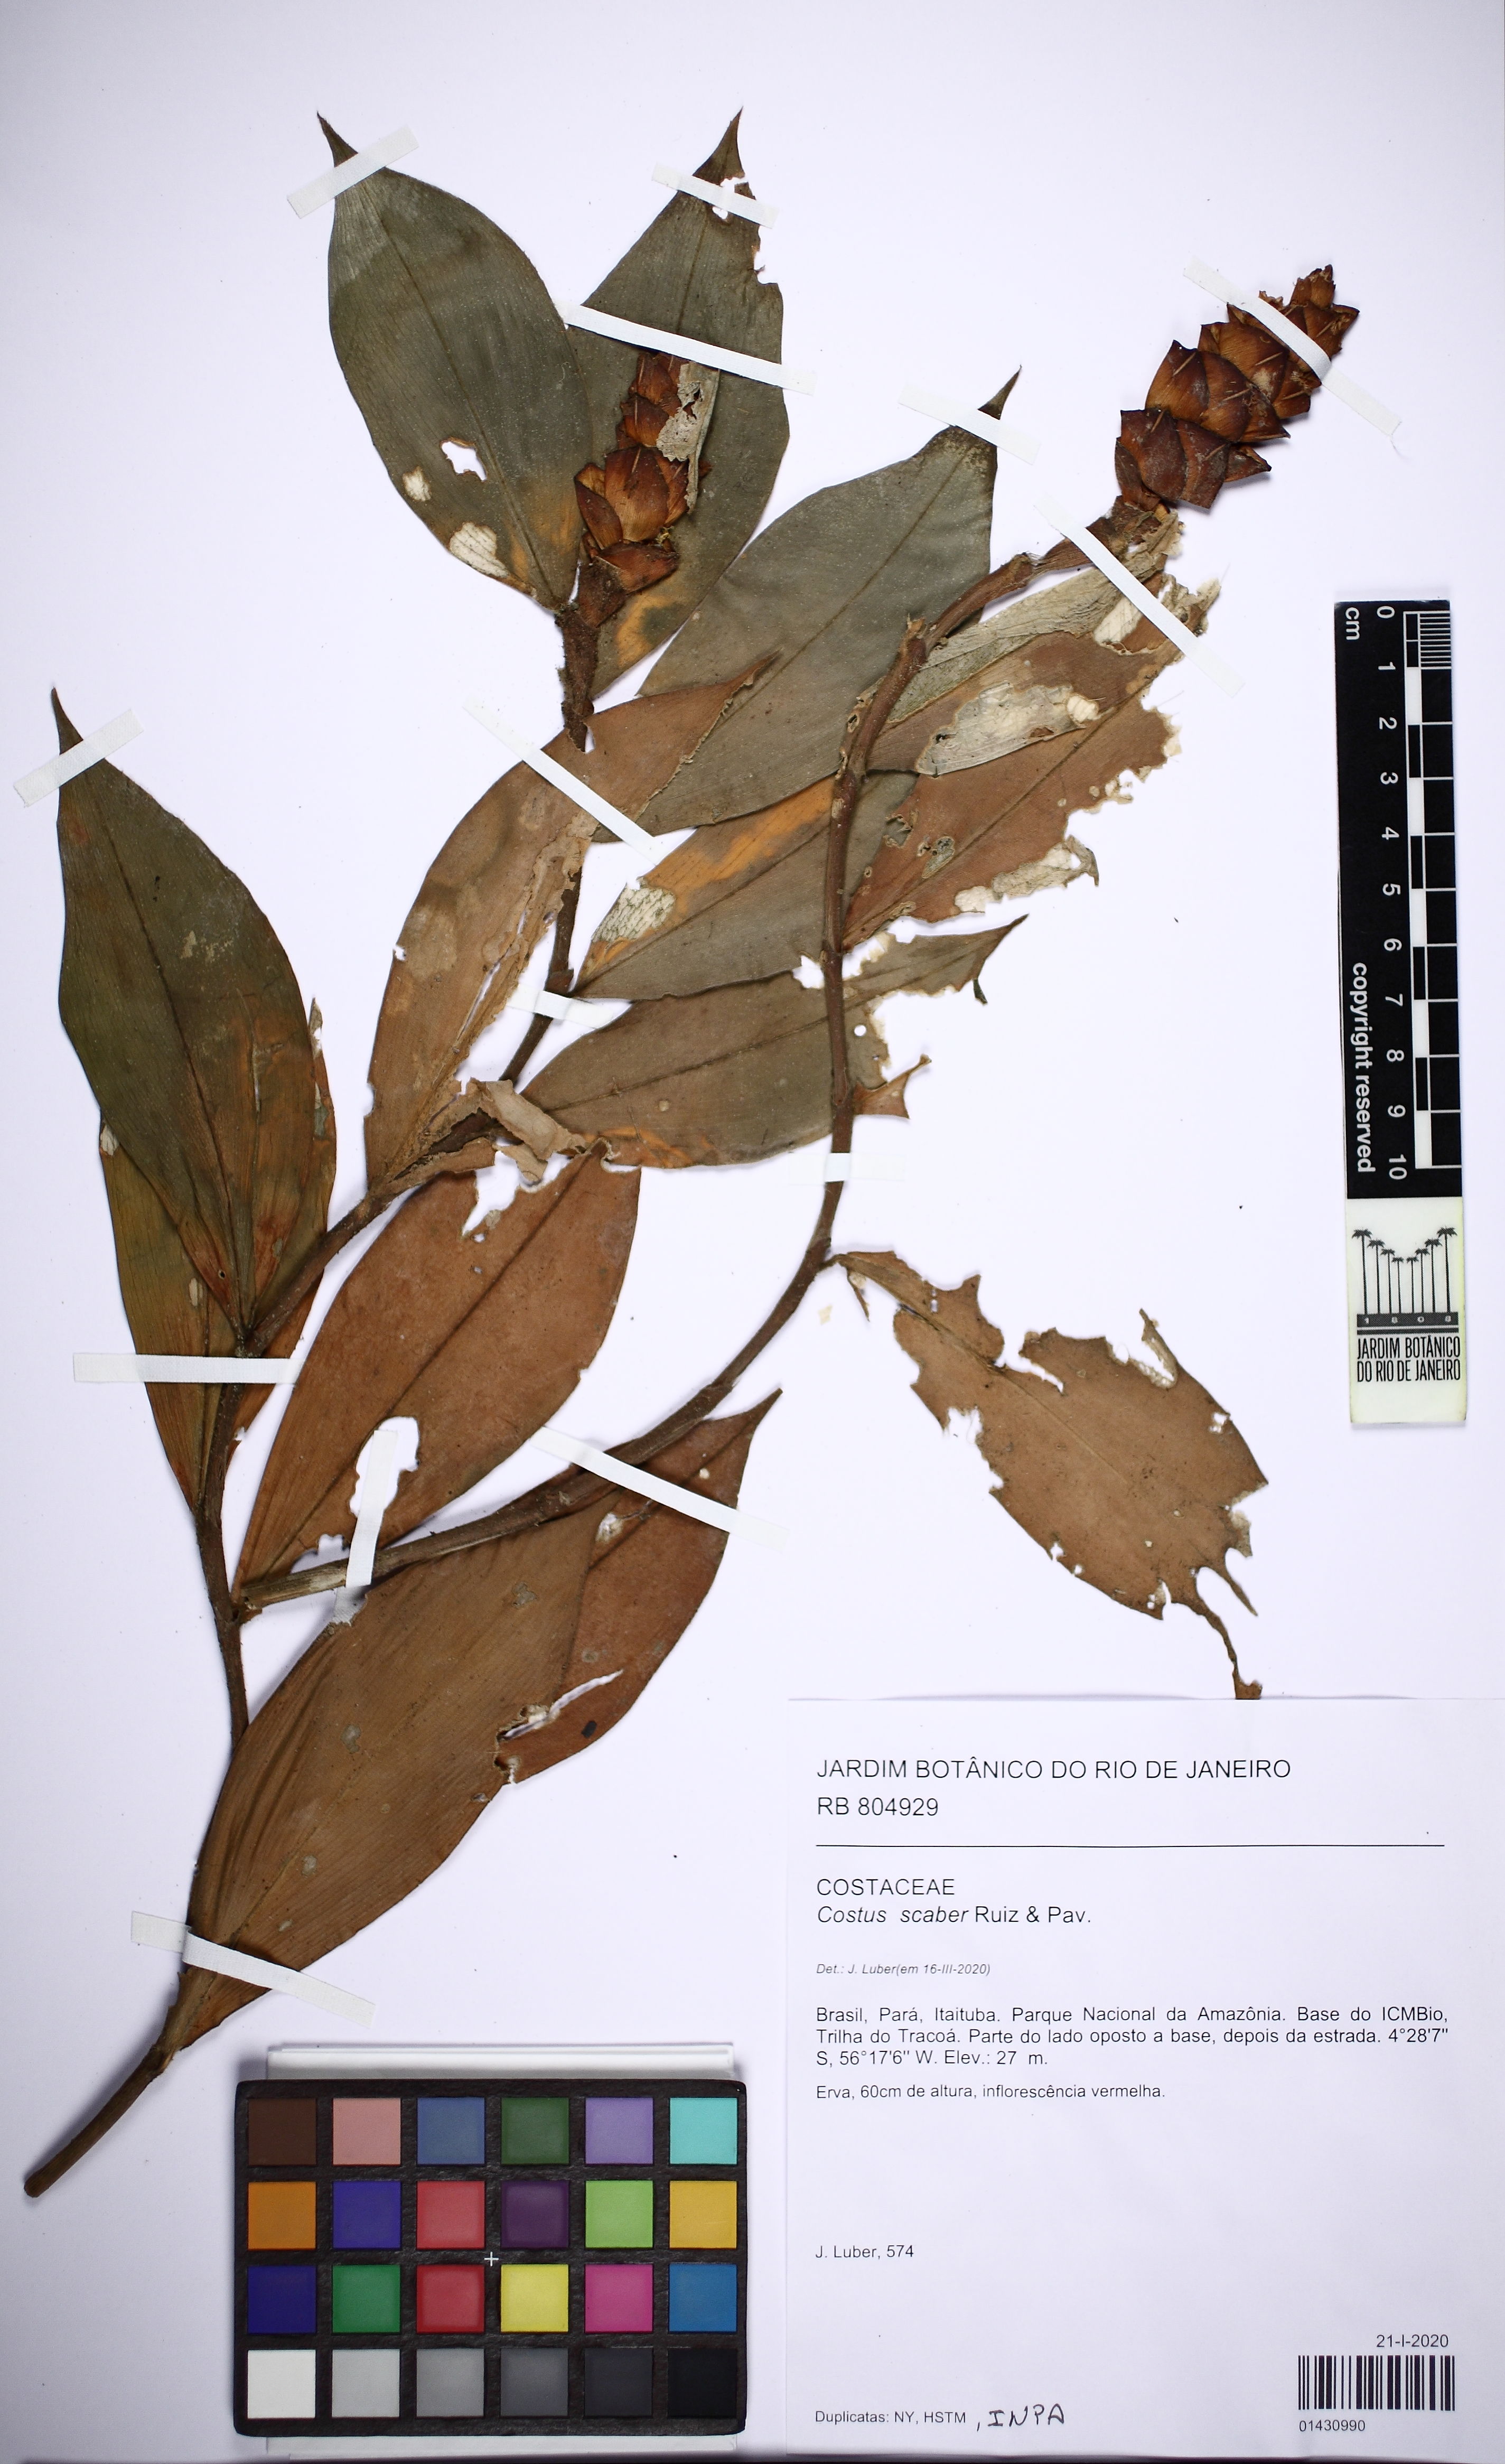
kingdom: Plantae
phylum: Tracheophyta
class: Liliopsida
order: Zingiberales
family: Costaceae
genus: Costus
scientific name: Costus scaber
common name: Spiral head ginger
